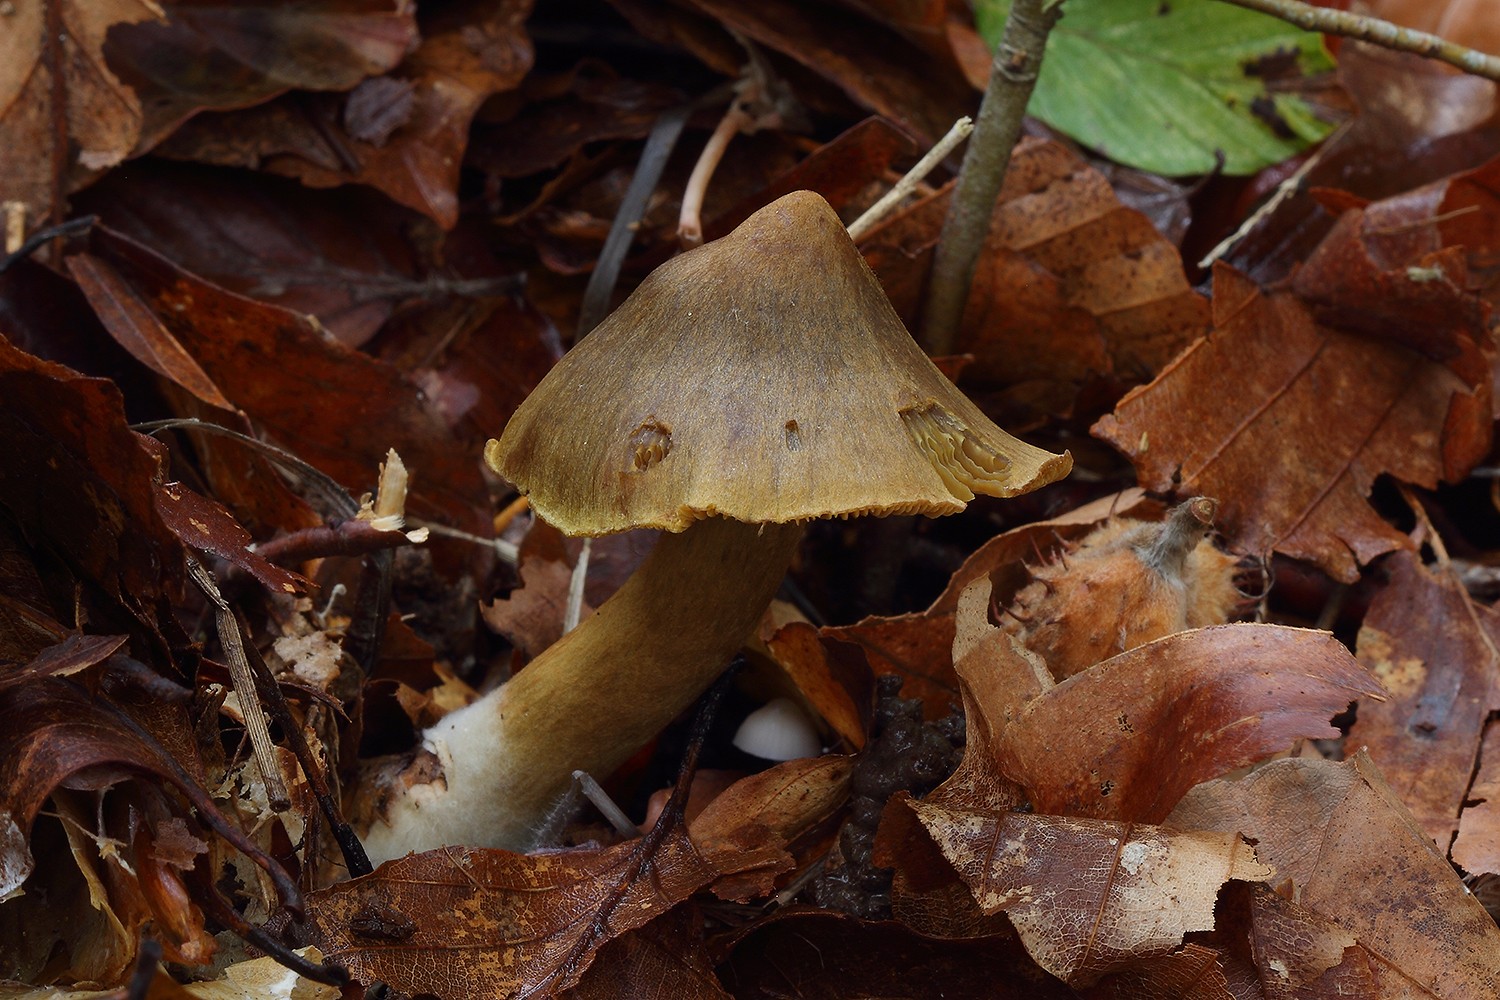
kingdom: Fungi
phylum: Basidiomycota
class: Agaricomycetes
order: Agaricales
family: Cortinariaceae
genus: Cortinarius
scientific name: Cortinarius olivaceofuscus
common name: olivenbrun slørhat
